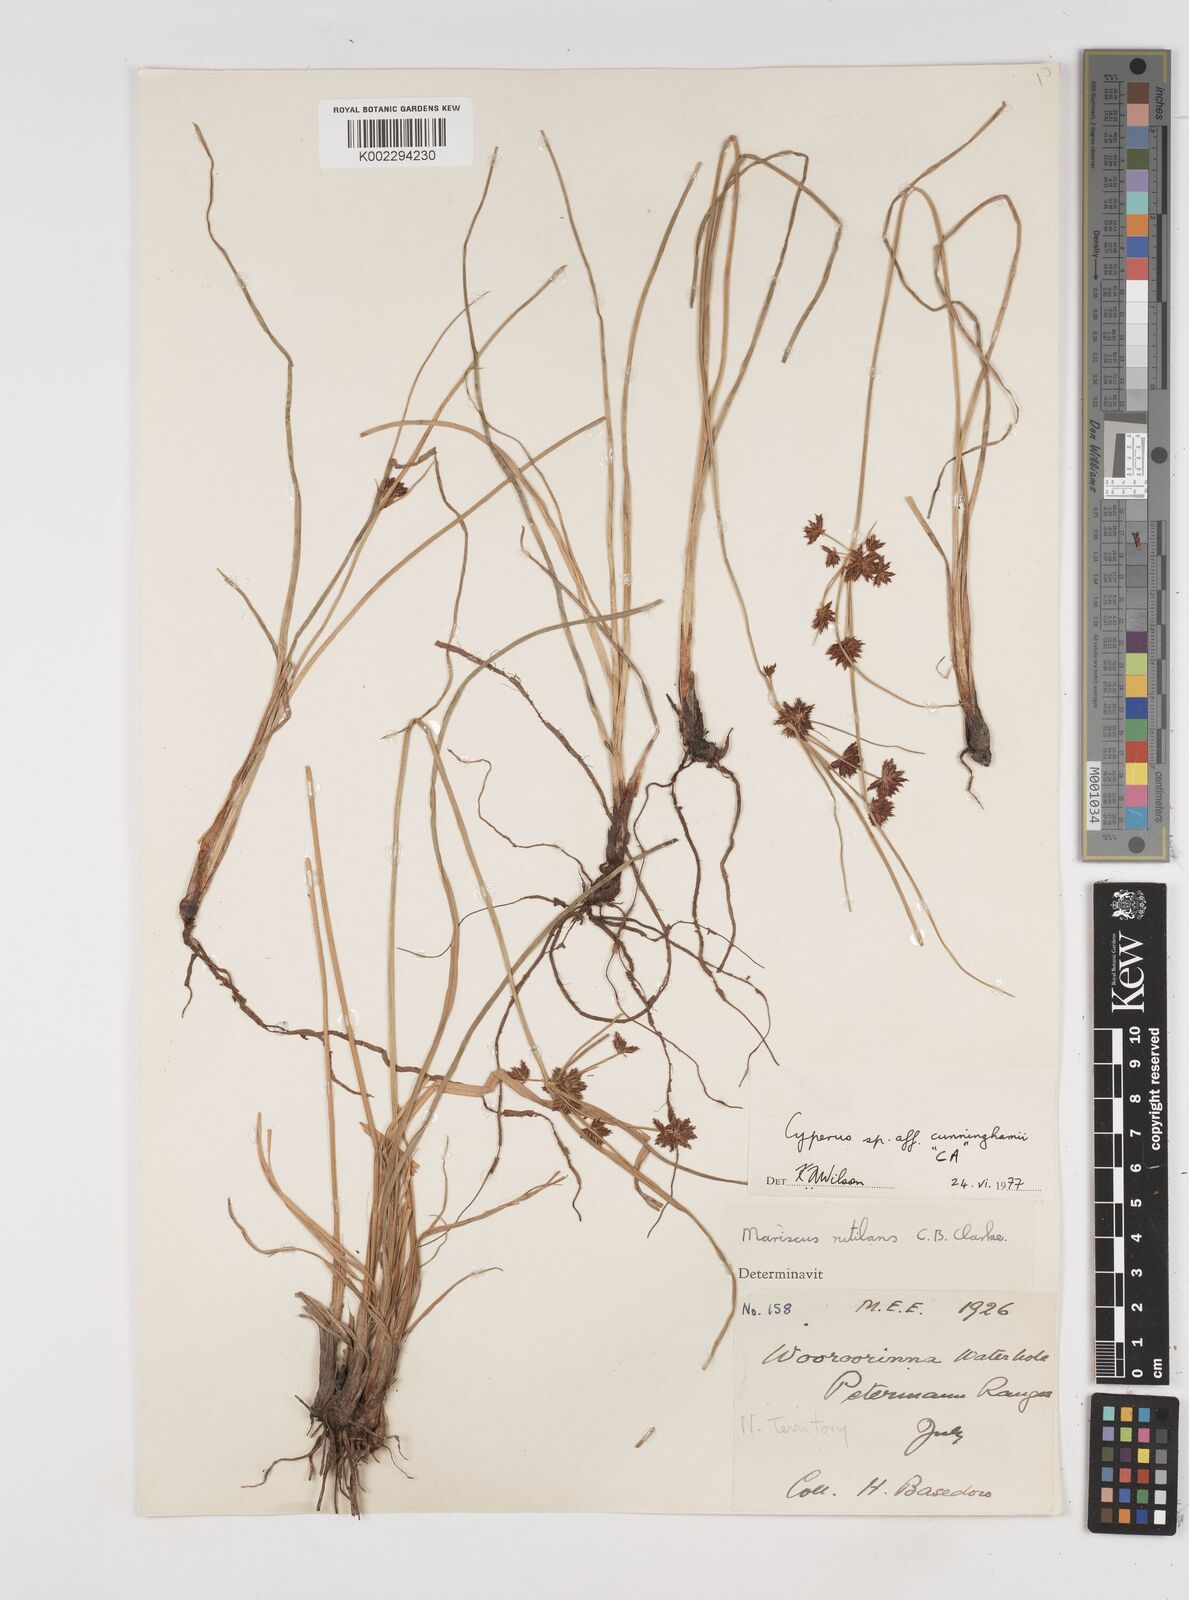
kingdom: Plantae
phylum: Tracheophyta
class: Liliopsida
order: Poales
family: Cyperaceae
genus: Cyperus
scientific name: Cyperus cunninghamii
